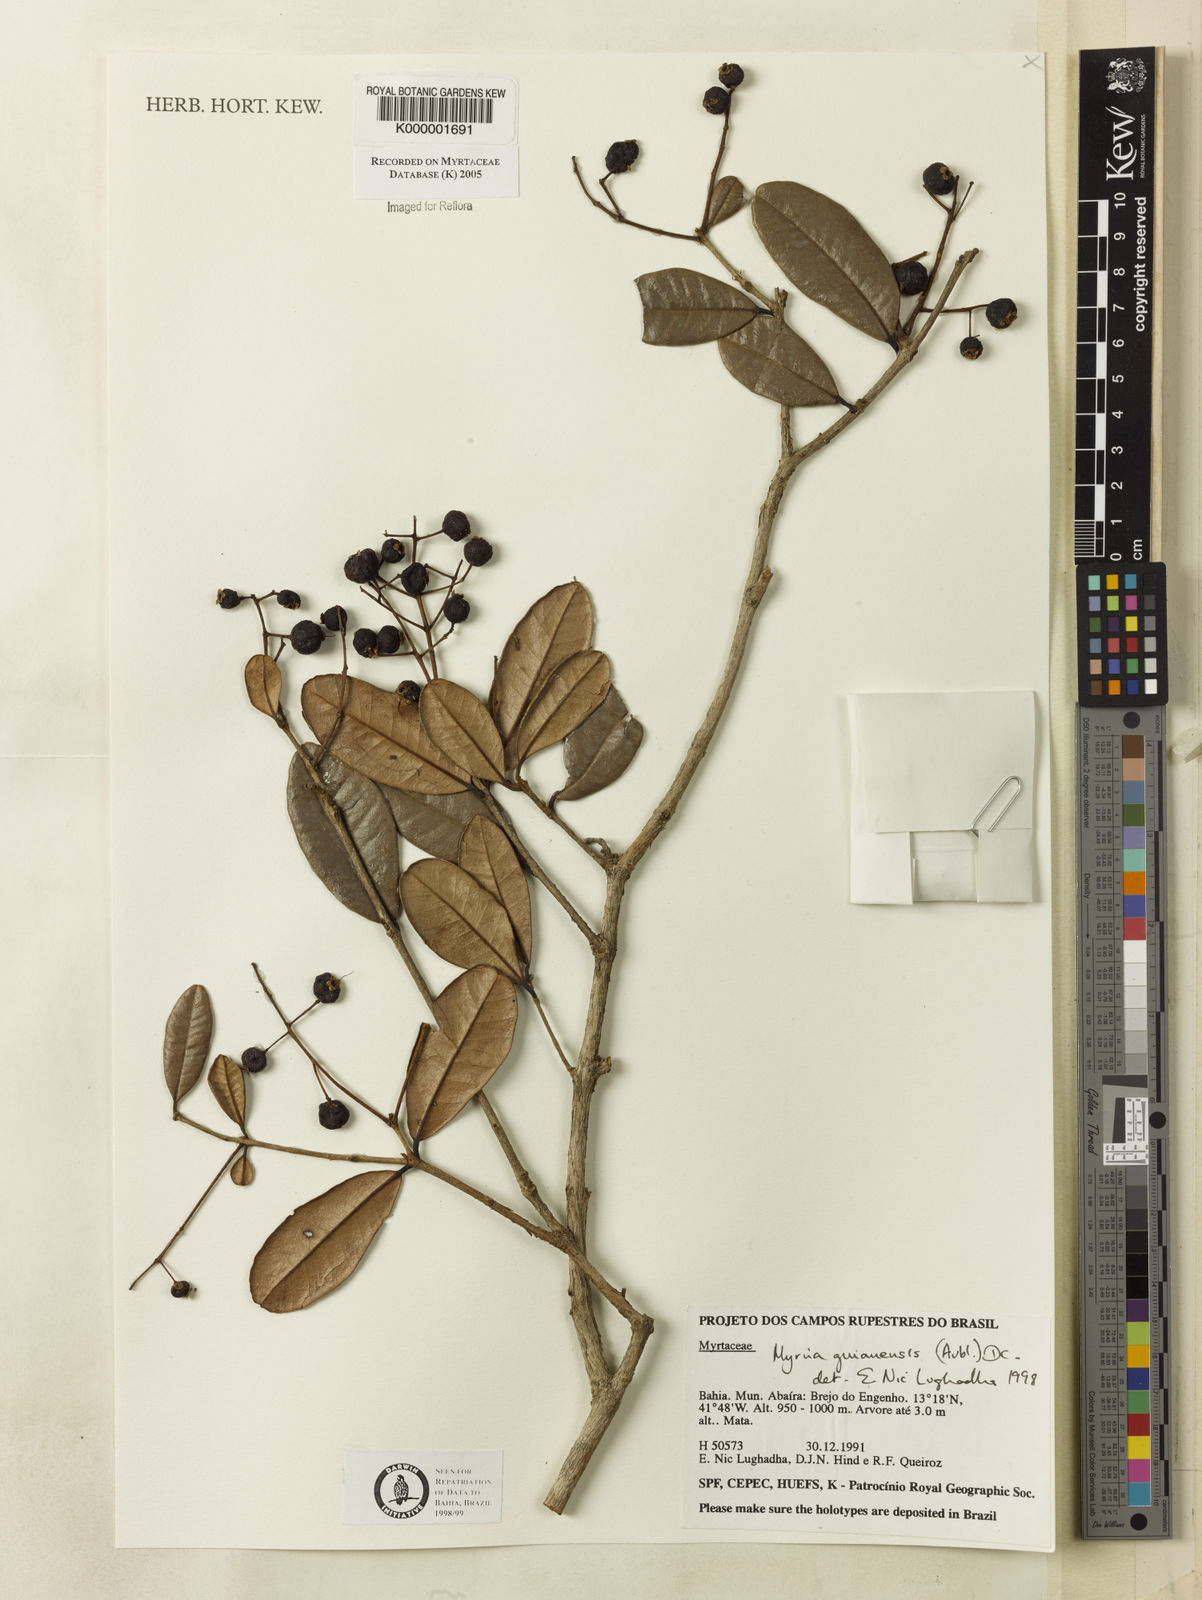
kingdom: Plantae
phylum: Tracheophyta
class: Magnoliopsida
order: Myrtales
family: Myrtaceae
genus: Myrcia
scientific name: Myrcia guianensis
